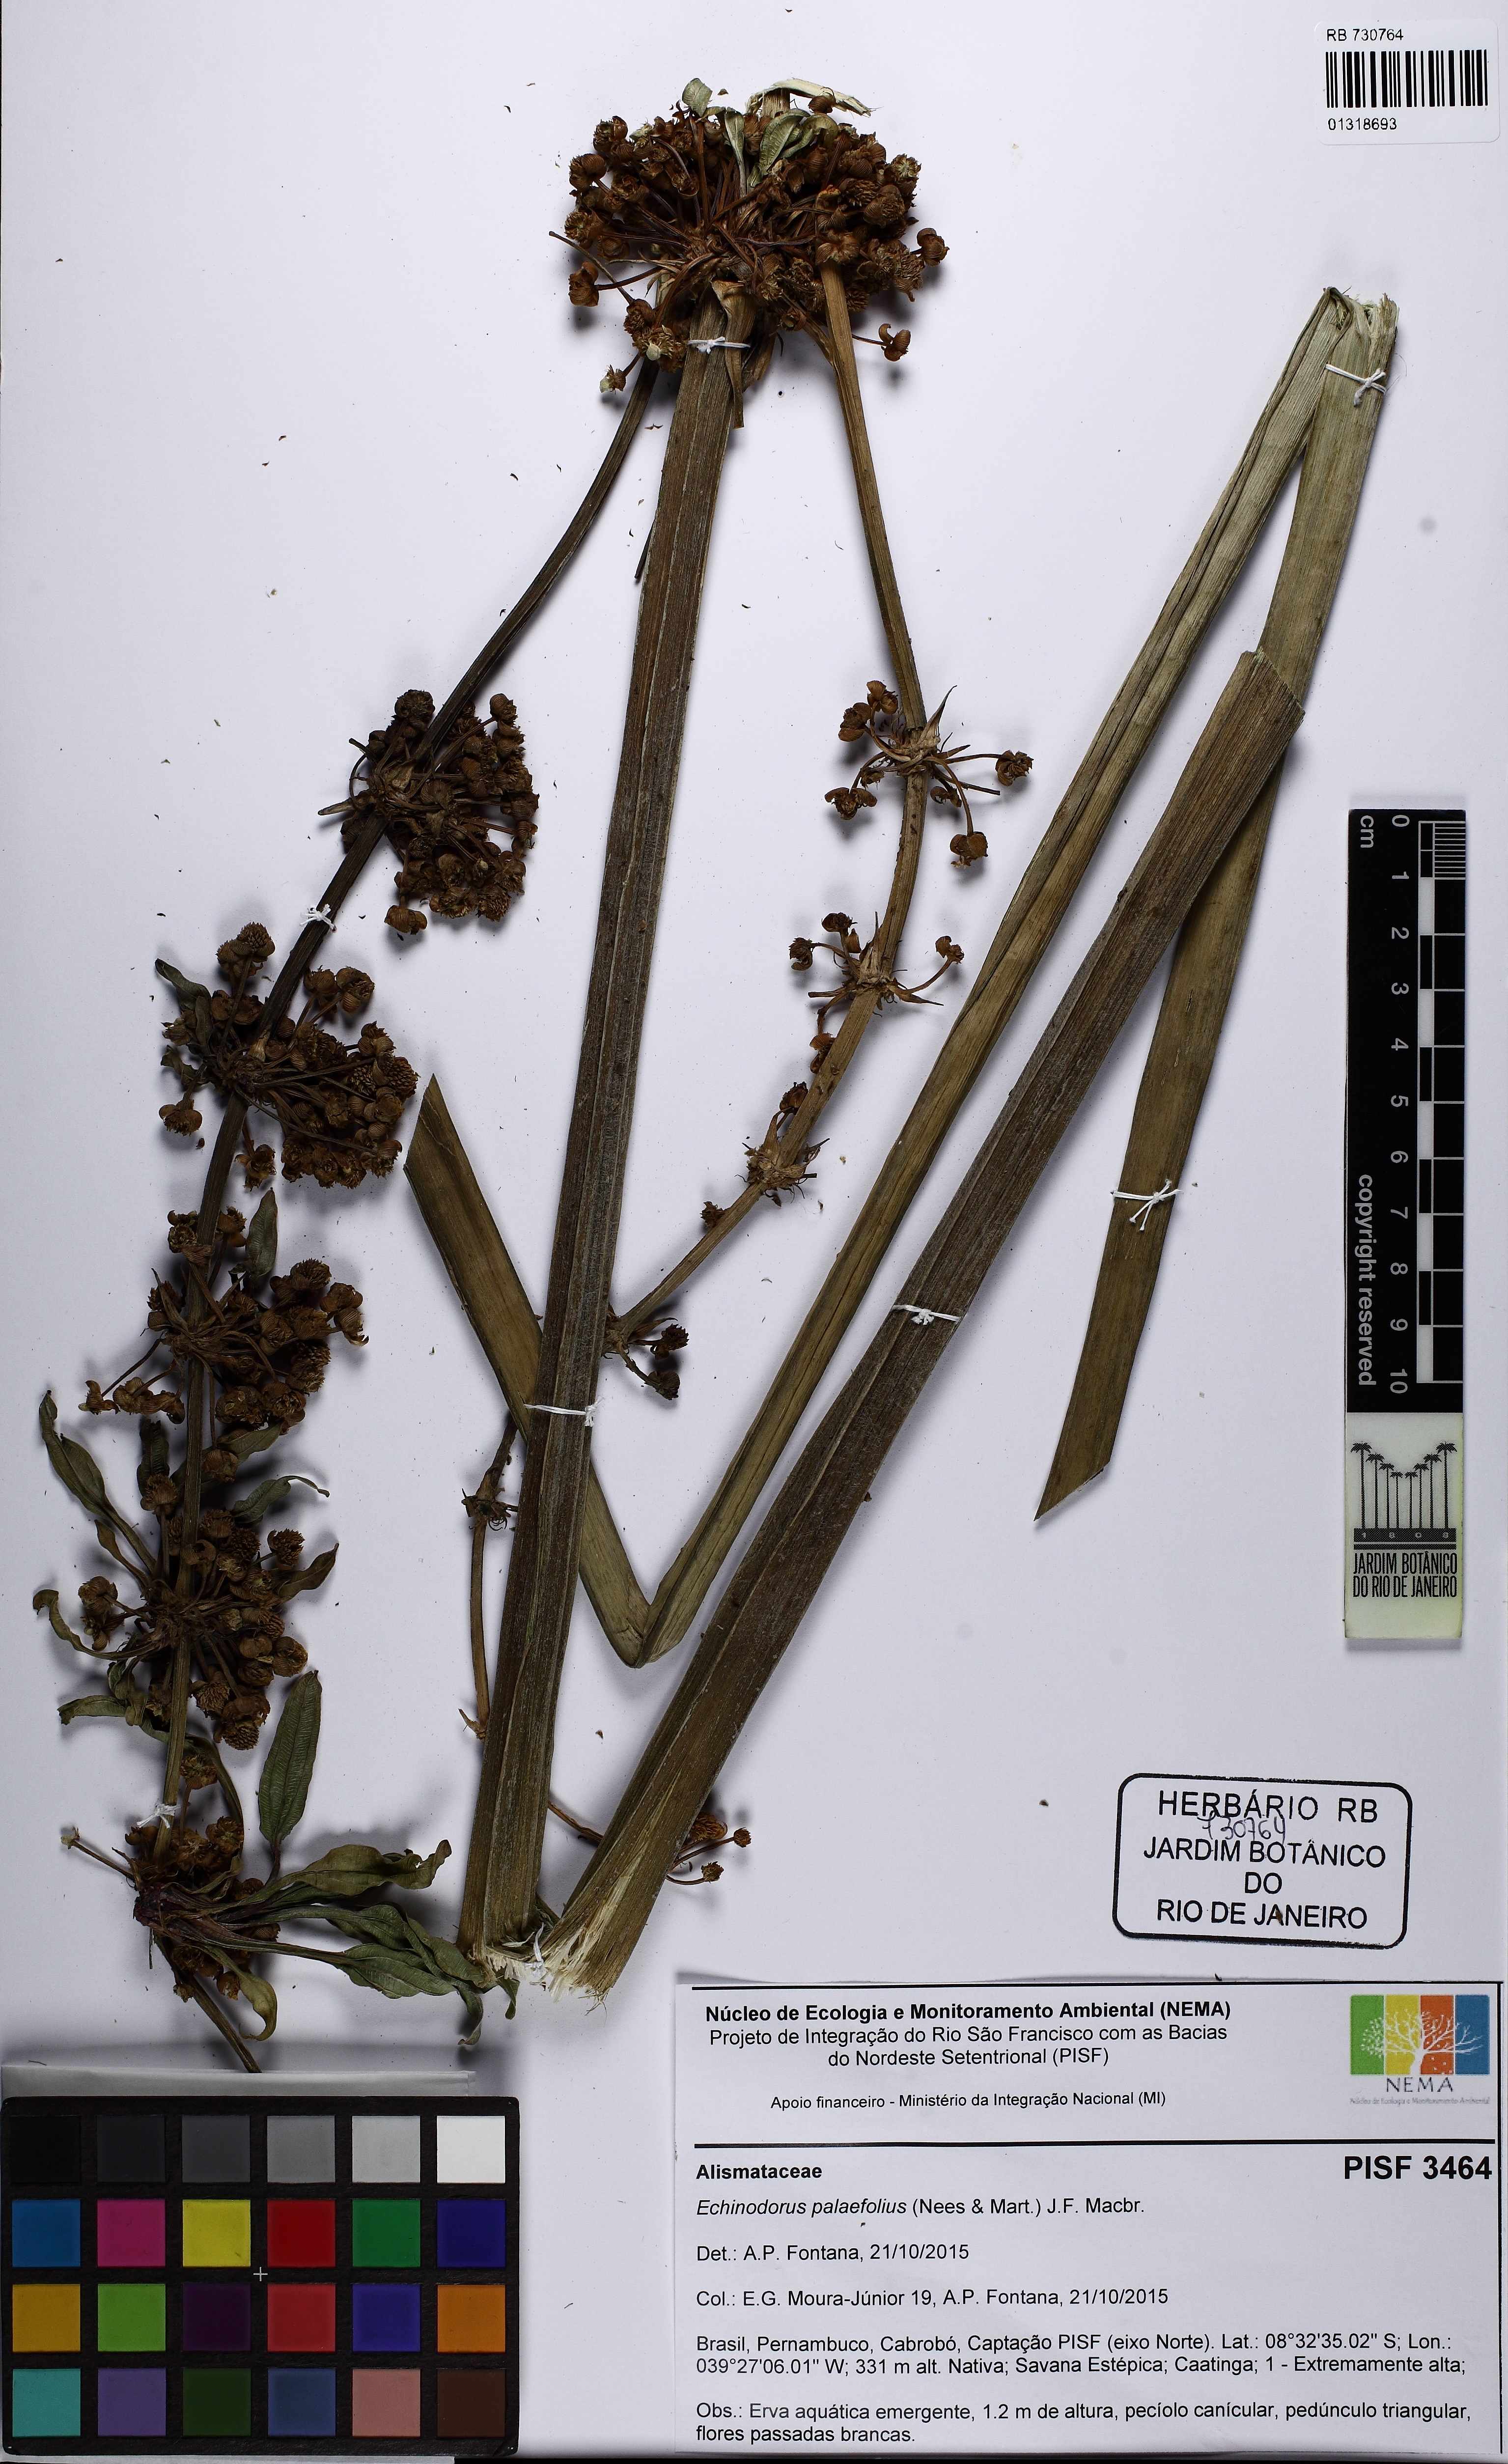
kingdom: Plantae
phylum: Tracheophyta
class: Liliopsida
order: Alismatales
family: Alismataceae
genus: Echinodorus
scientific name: Echinodorus palaefolius
